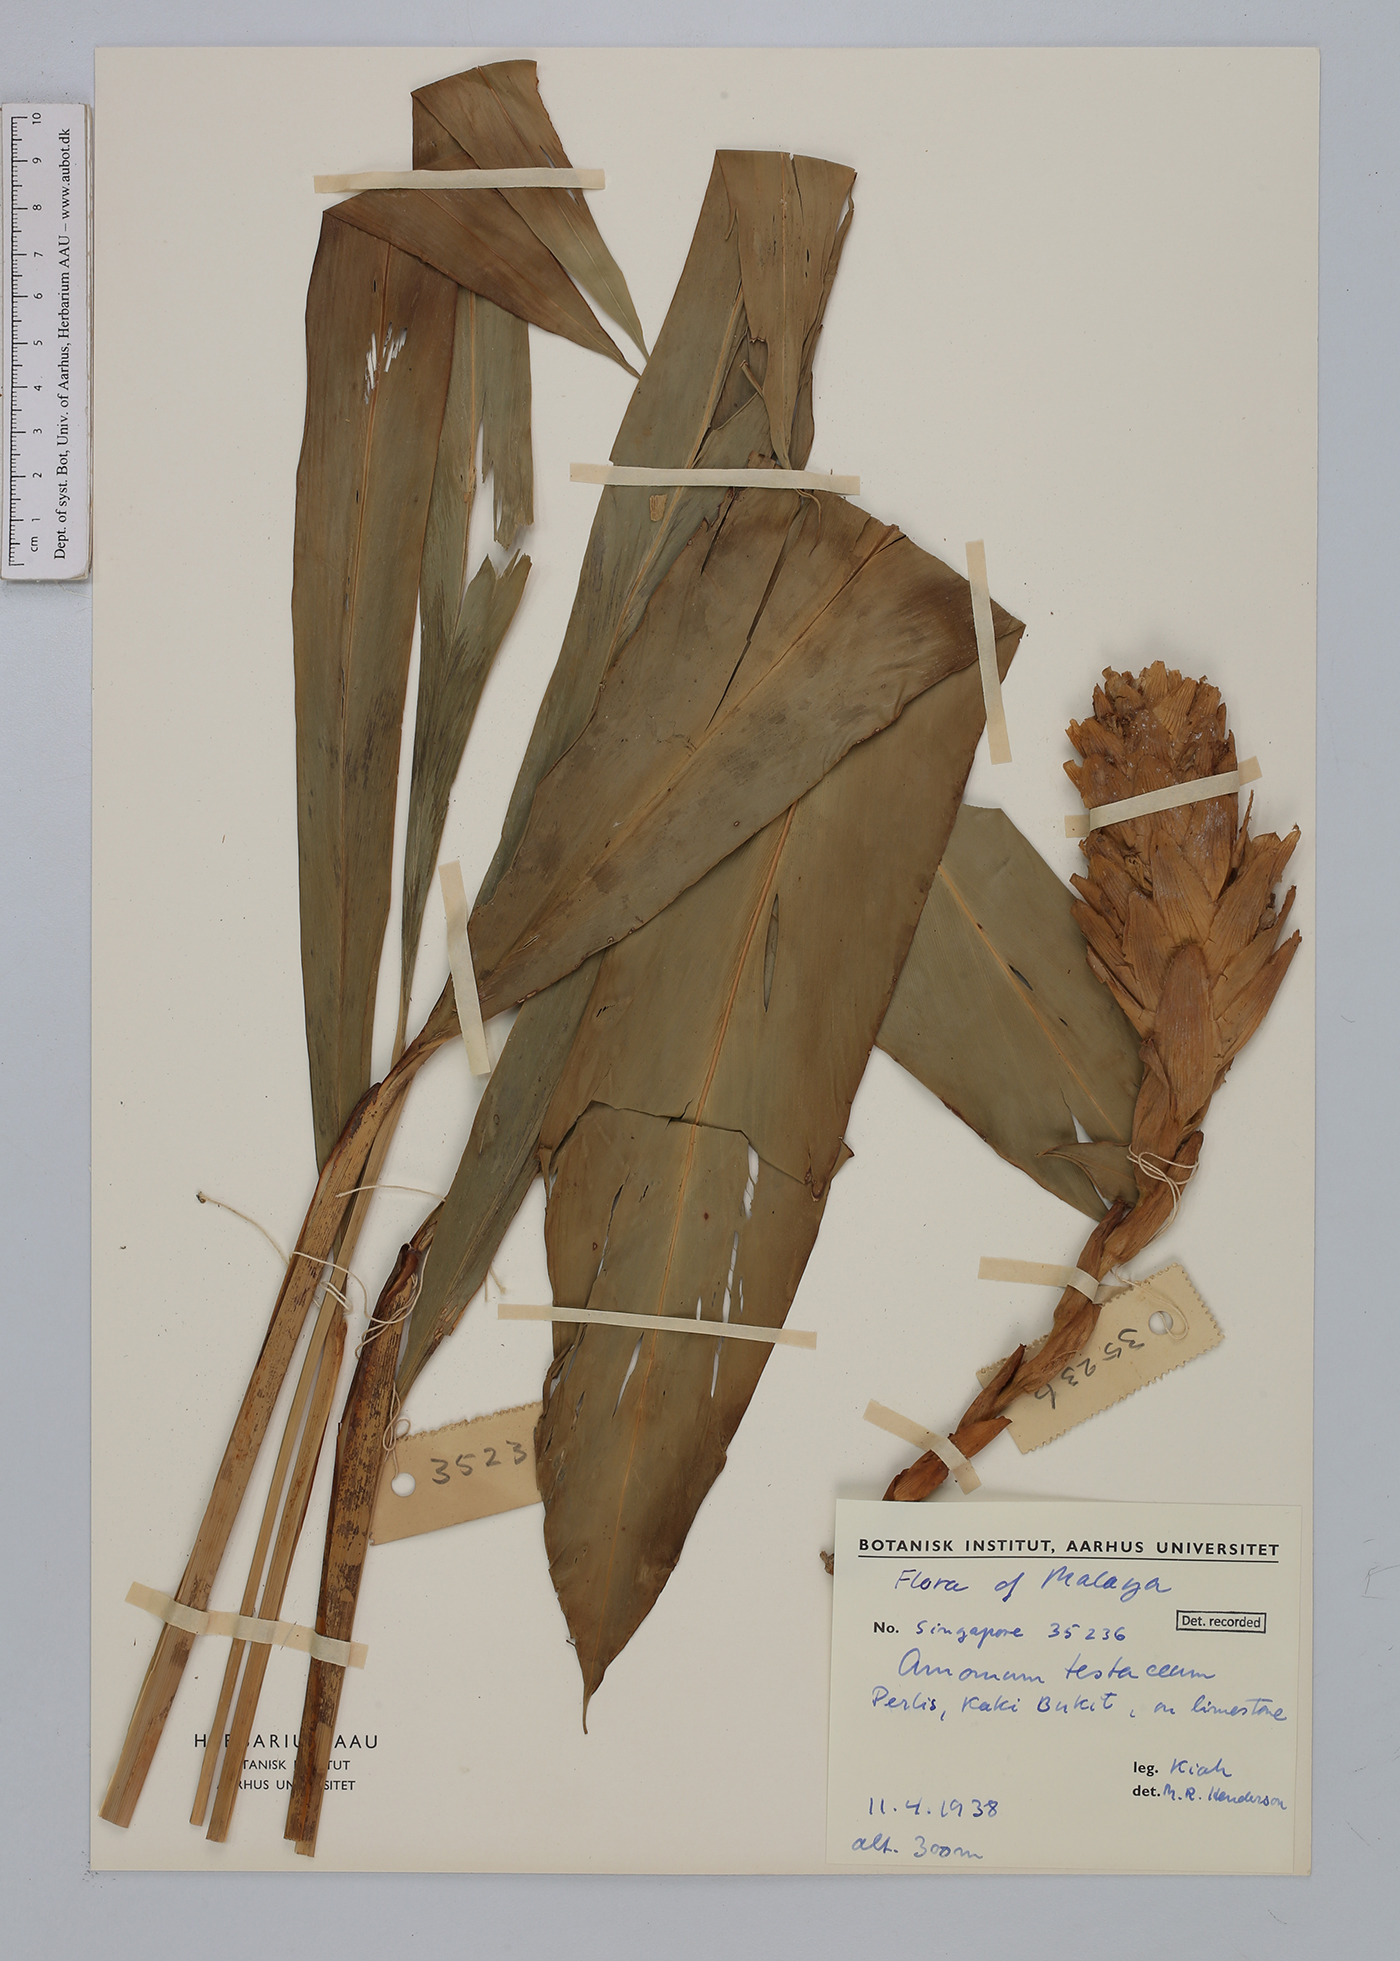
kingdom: Plantae
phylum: Tracheophyta
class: Liliopsida
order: Zingiberales
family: Zingiberaceae
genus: Wurfbainia
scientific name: Wurfbainia testacea
